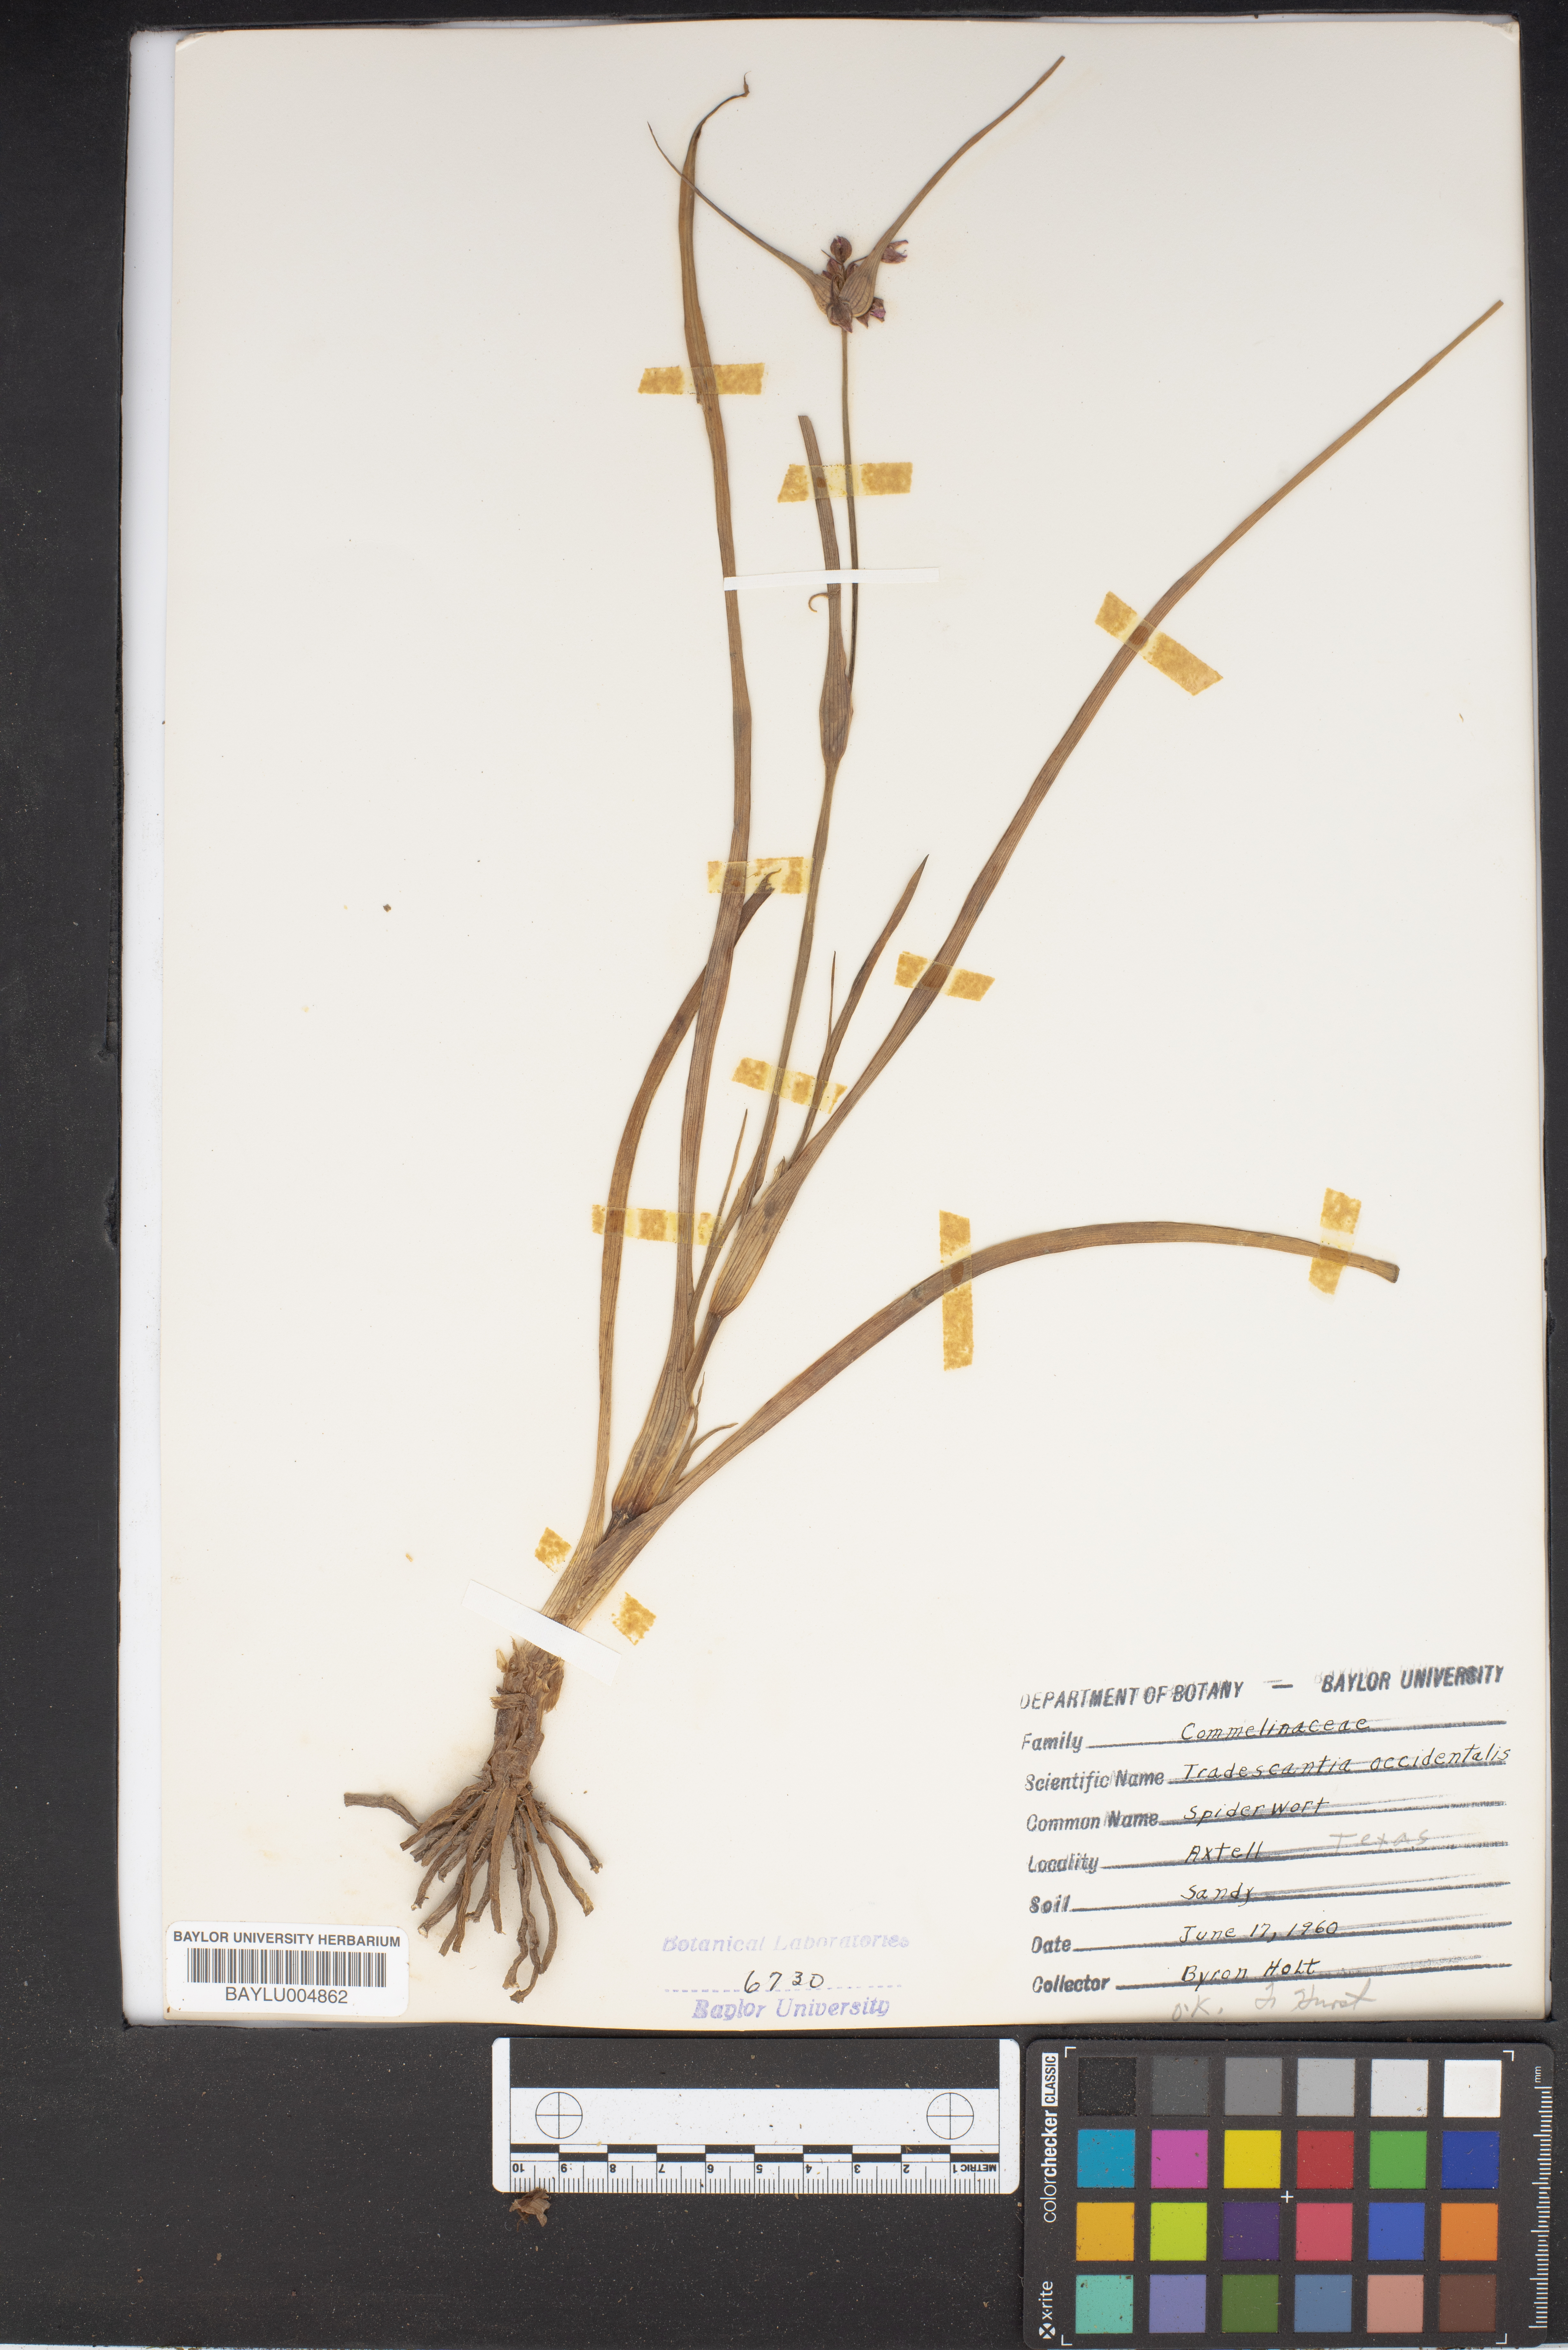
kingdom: Plantae
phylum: Tracheophyta
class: Liliopsida
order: Commelinales
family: Commelinaceae
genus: Tradescantia
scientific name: Tradescantia occidentalis
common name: Prairie spiderwort
